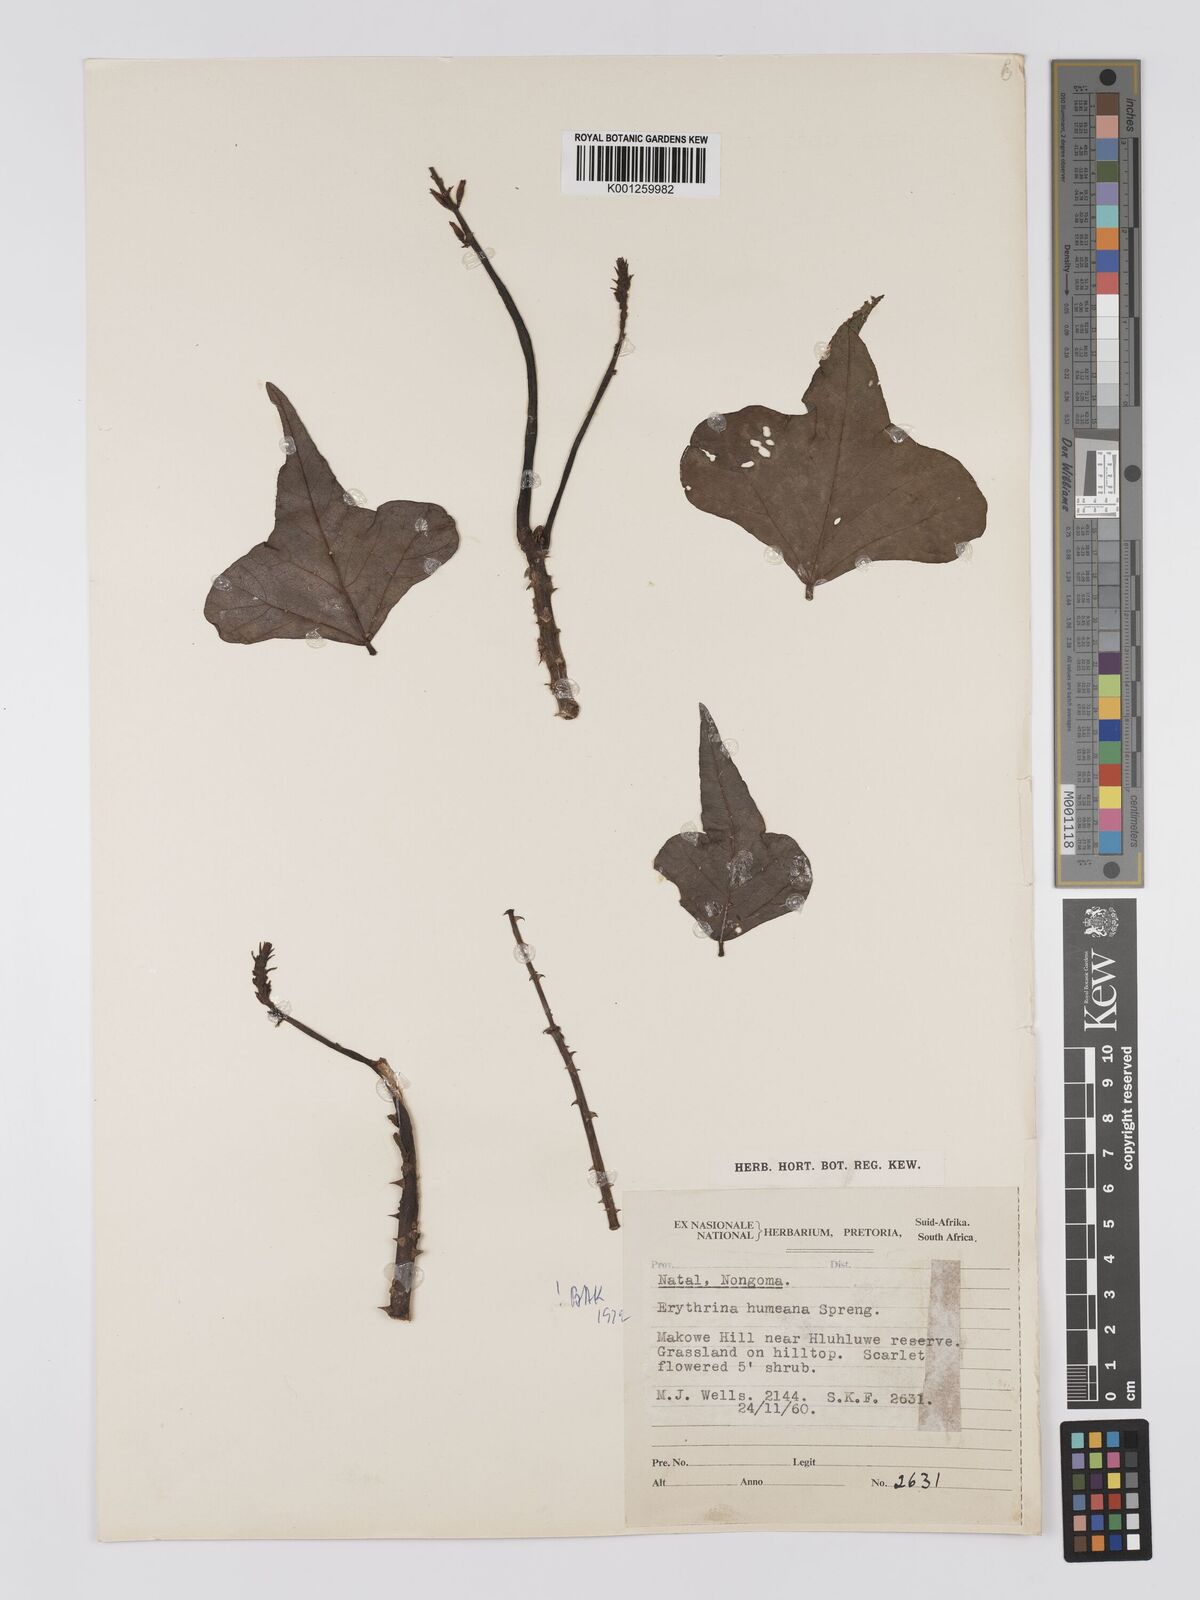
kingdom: Plantae
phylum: Tracheophyta
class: Magnoliopsida
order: Fabales
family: Fabaceae
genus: Erythrina
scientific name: Erythrina humeana
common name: Dwarf coral tree
